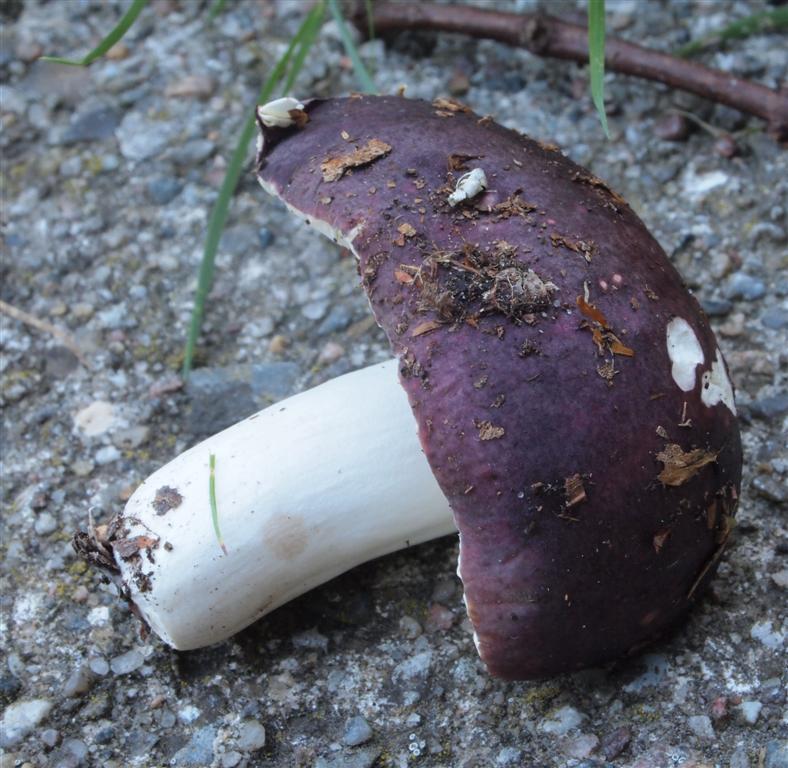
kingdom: Fungi
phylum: Basidiomycota
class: Agaricomycetes
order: Russulales
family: Russulaceae
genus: Russula
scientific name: Russula brunneoviolacea
